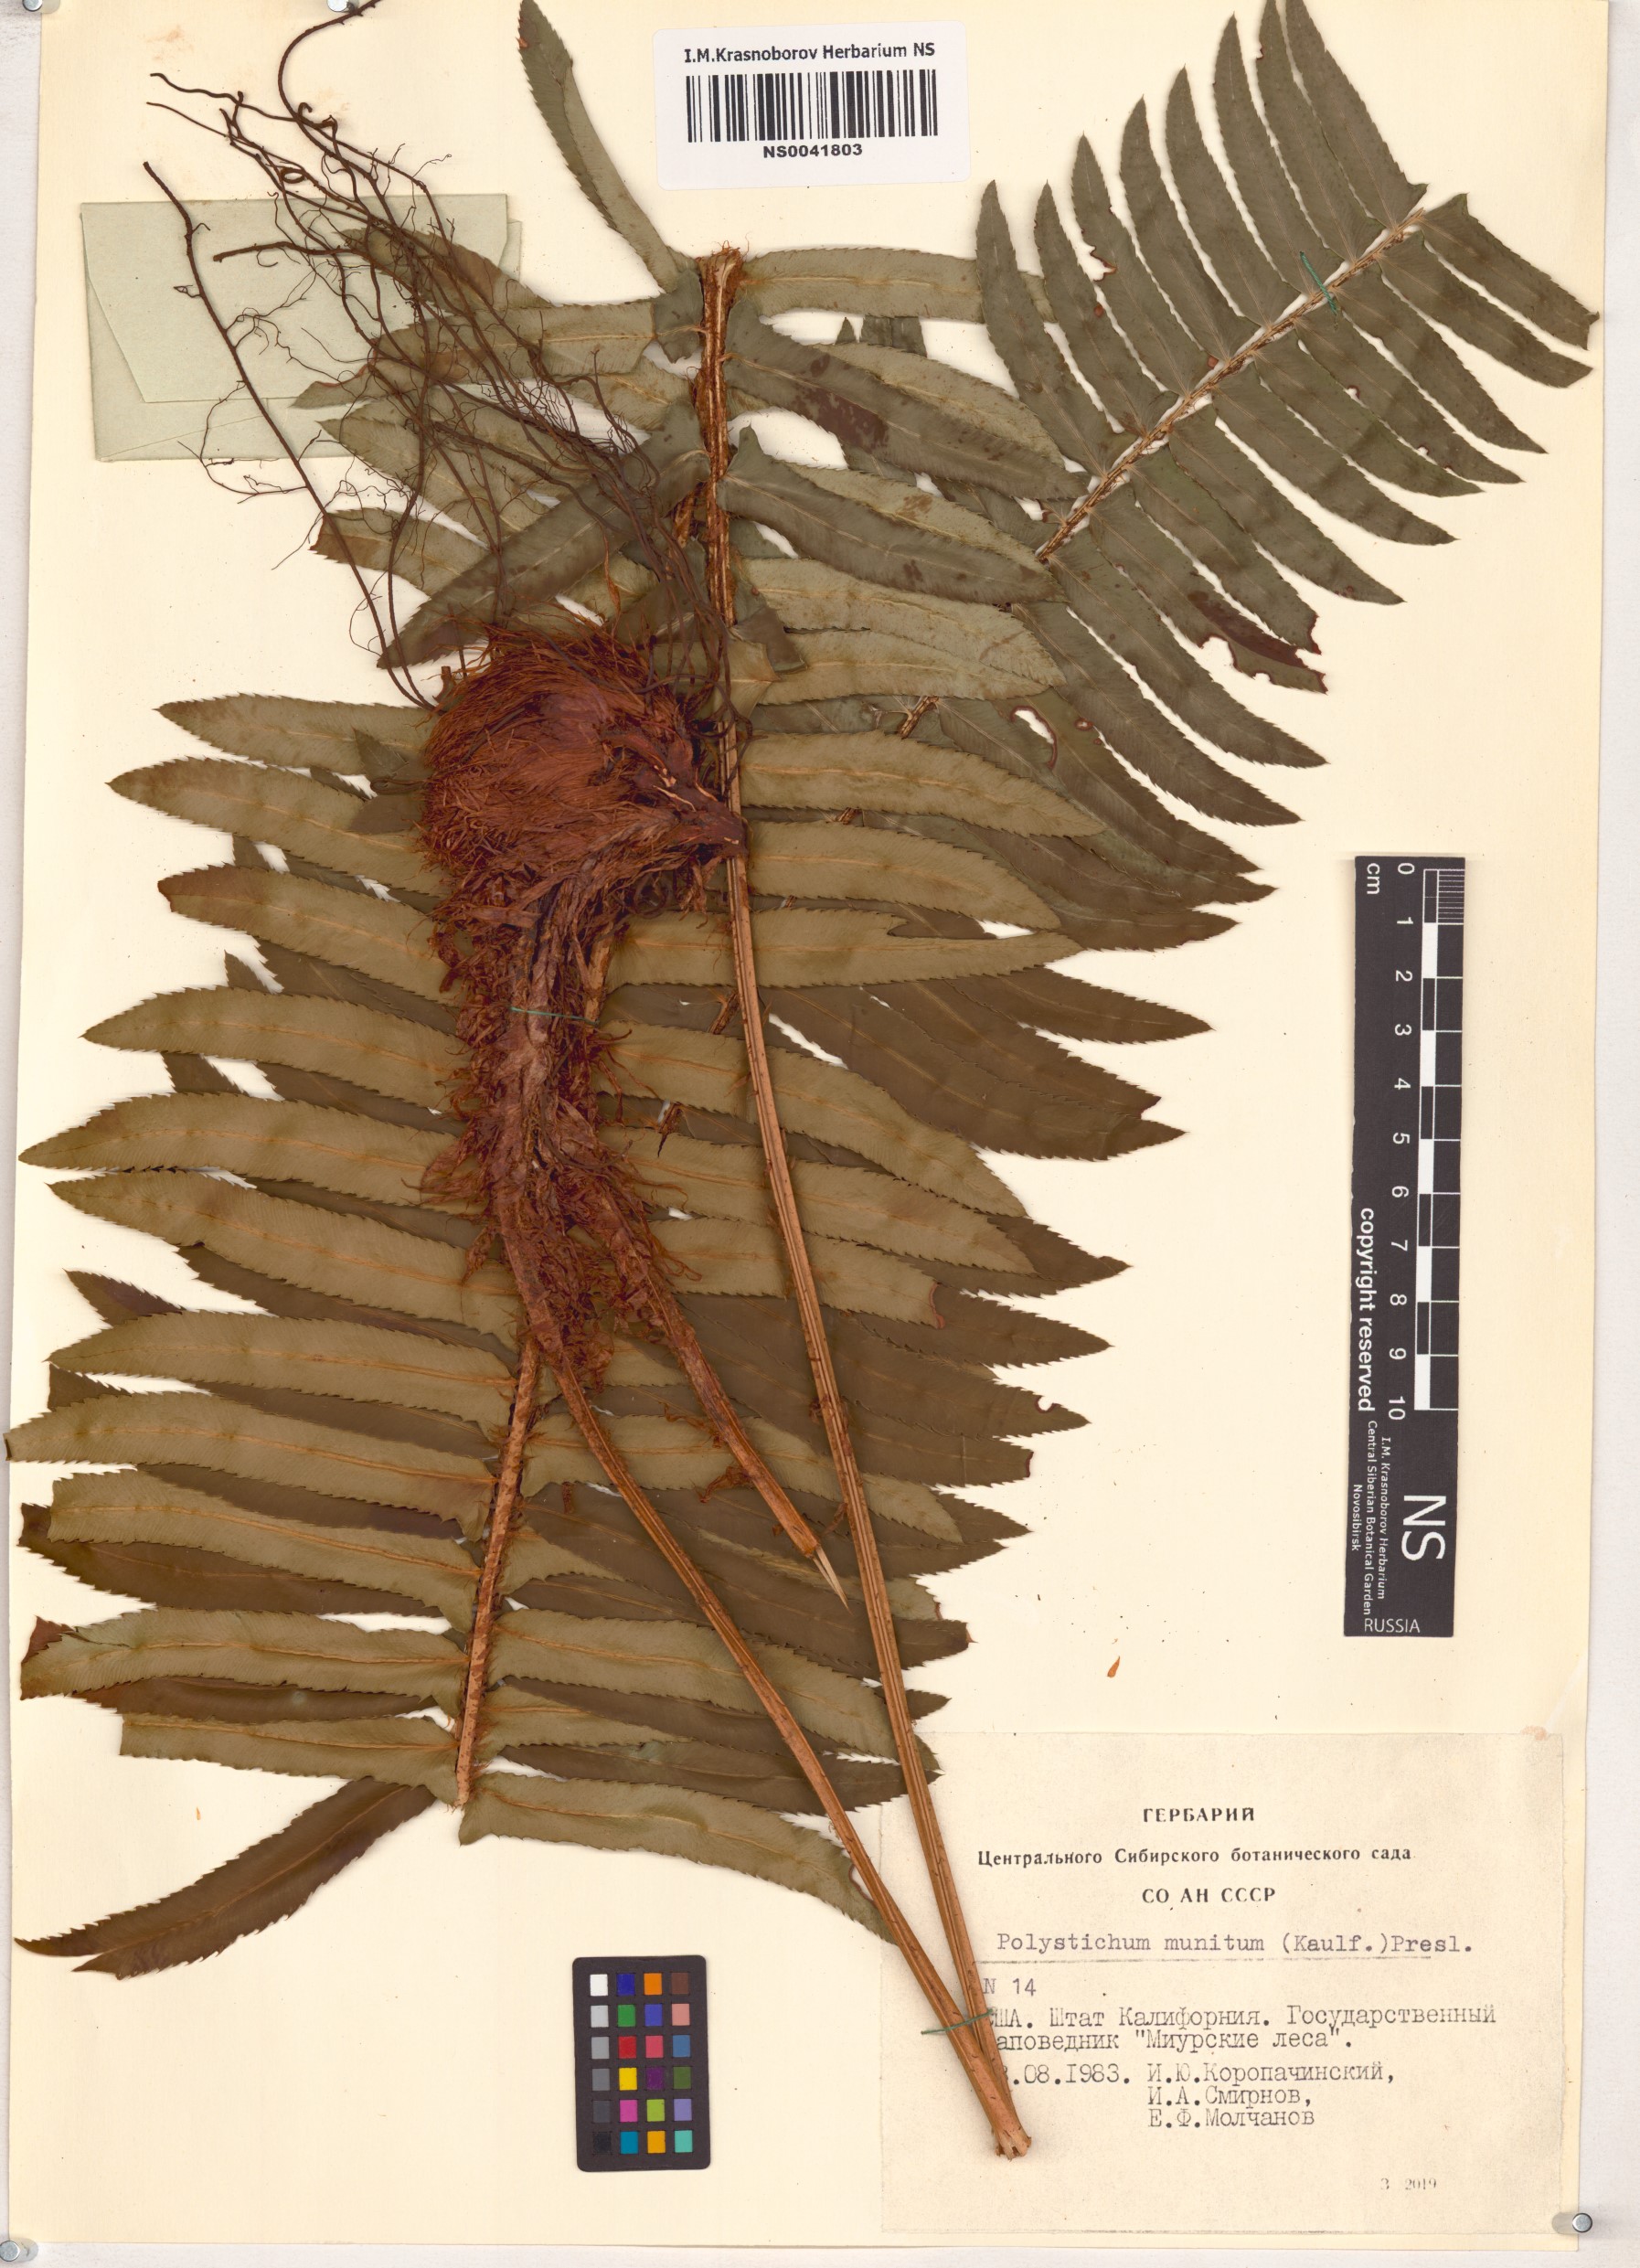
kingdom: Plantae
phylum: Tracheophyta
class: Polypodiopsida
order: Polypodiales
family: Dryopteridaceae
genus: Polystichum
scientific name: Polystichum munitum
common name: Western sword-fern
